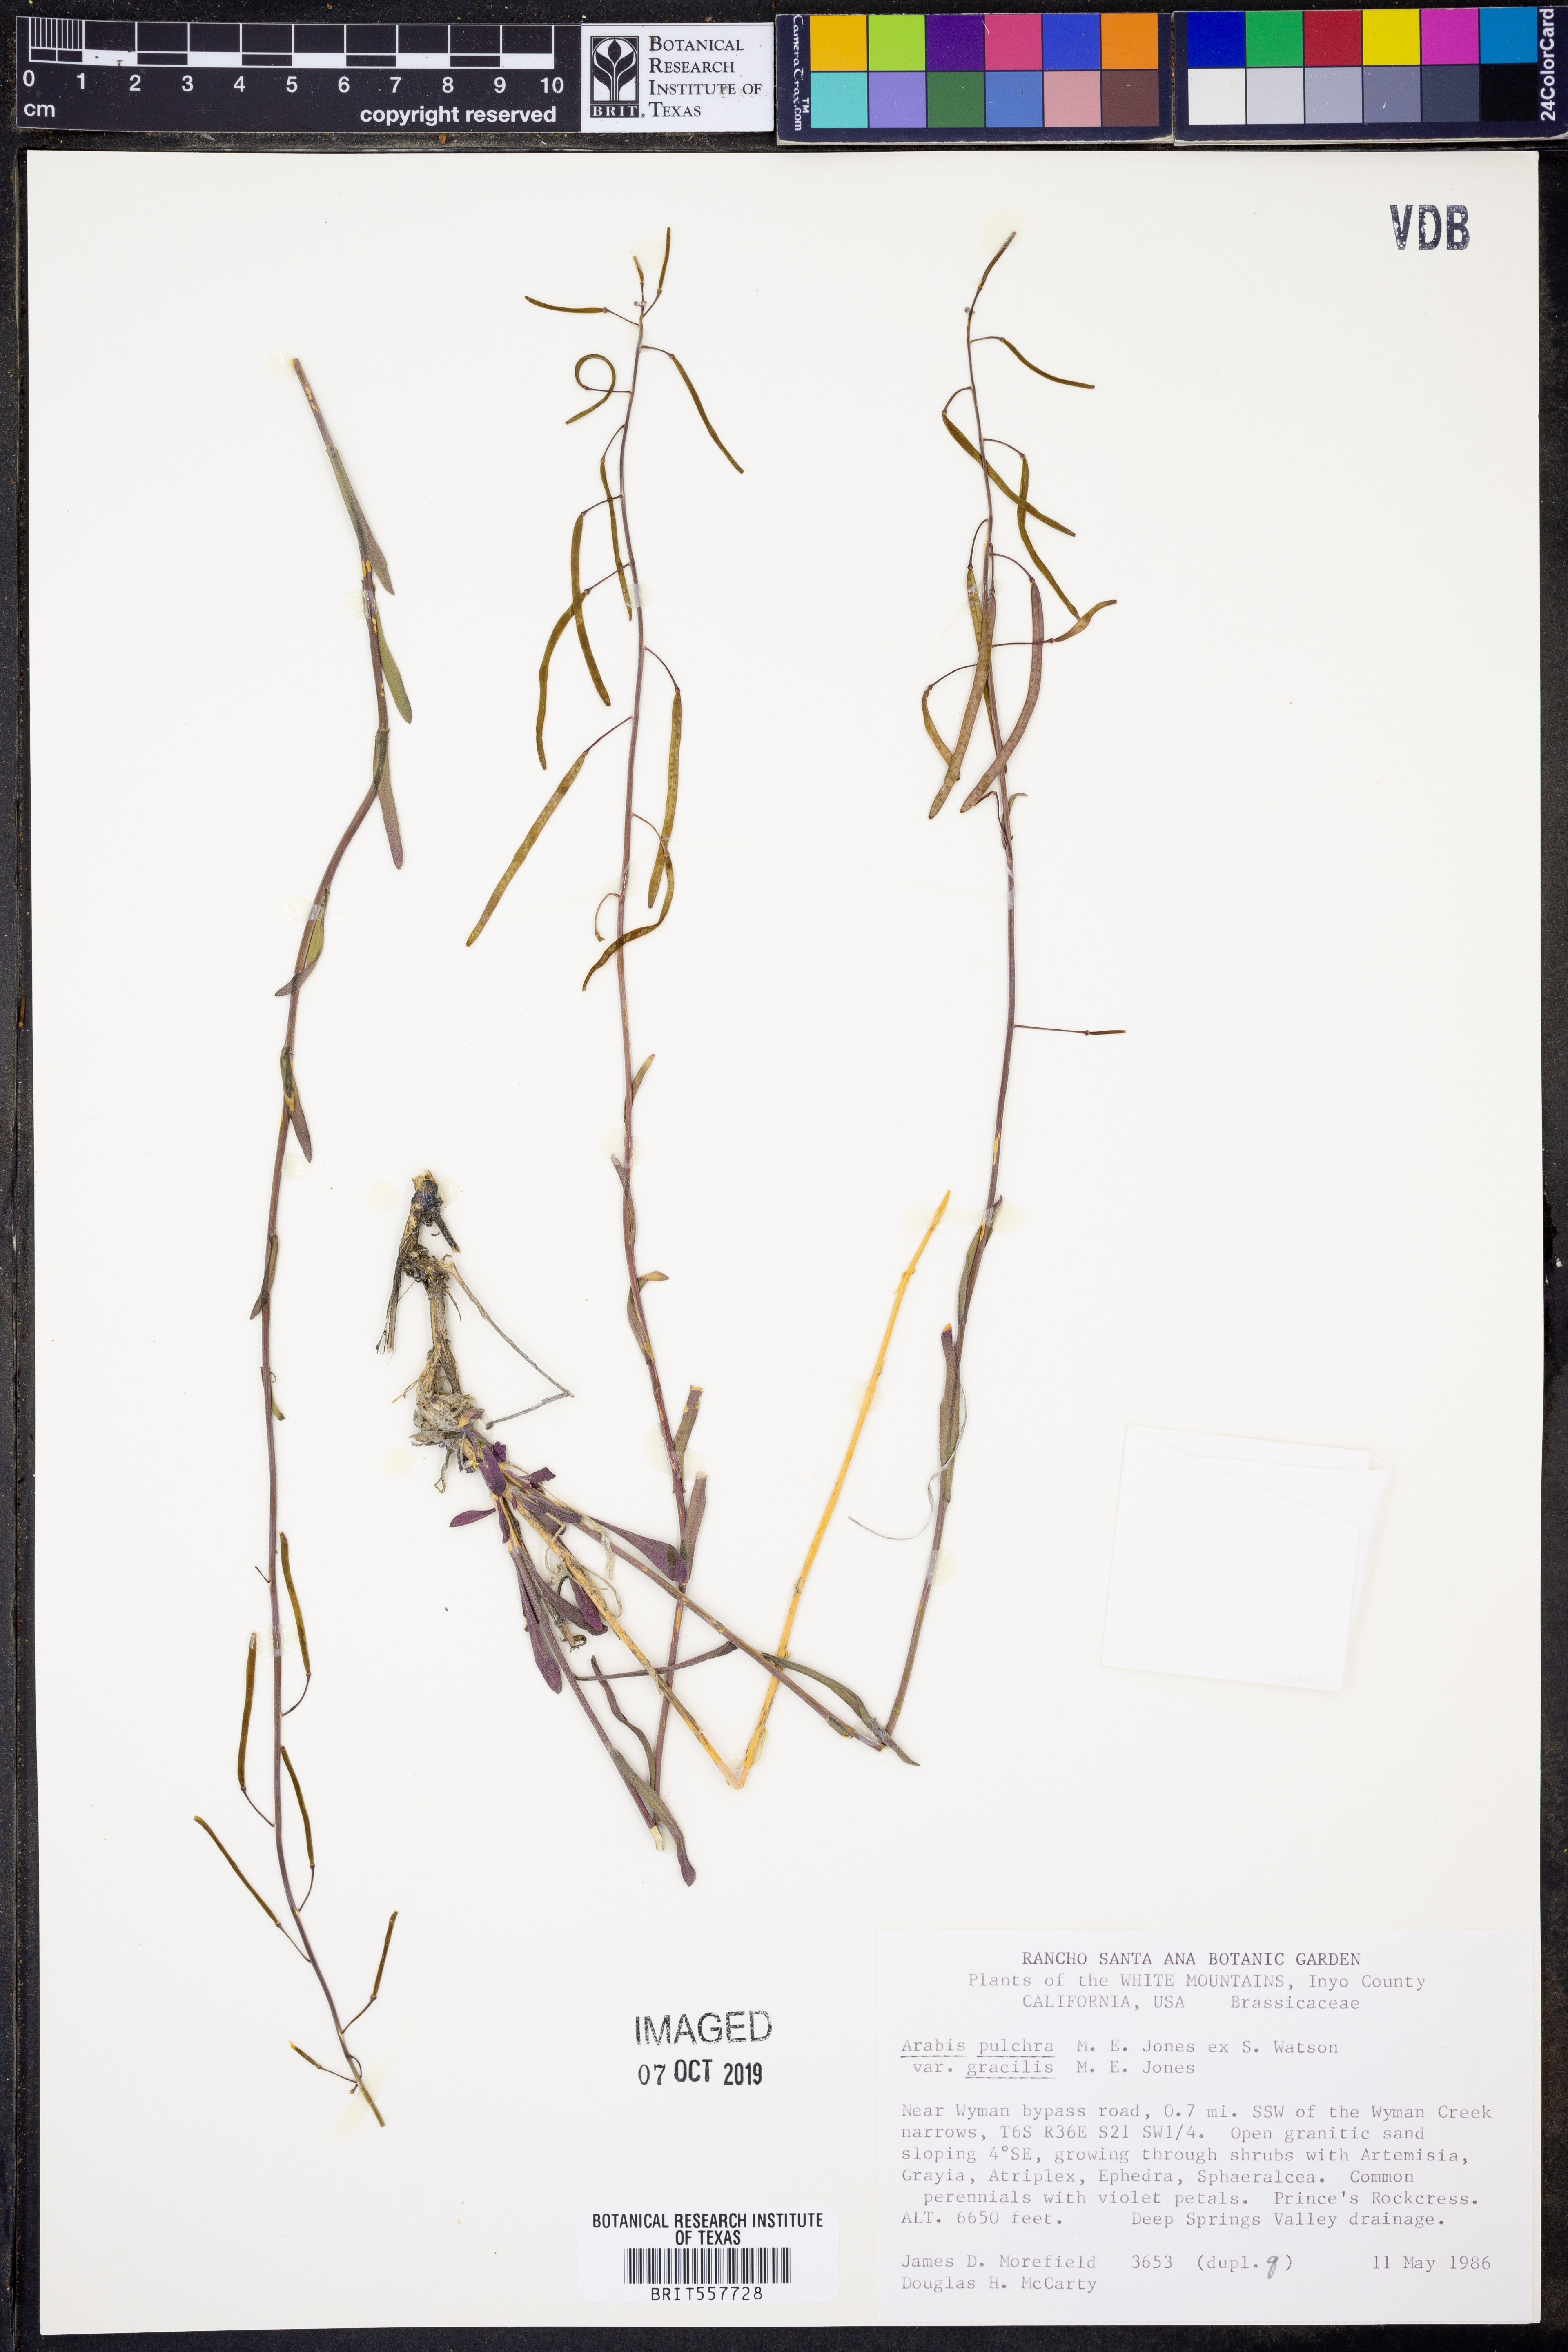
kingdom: Plantae
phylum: Tracheophyta
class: Magnoliopsida
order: Brassicales
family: Brassicaceae
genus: Boechera
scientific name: Boechera xylopoda
